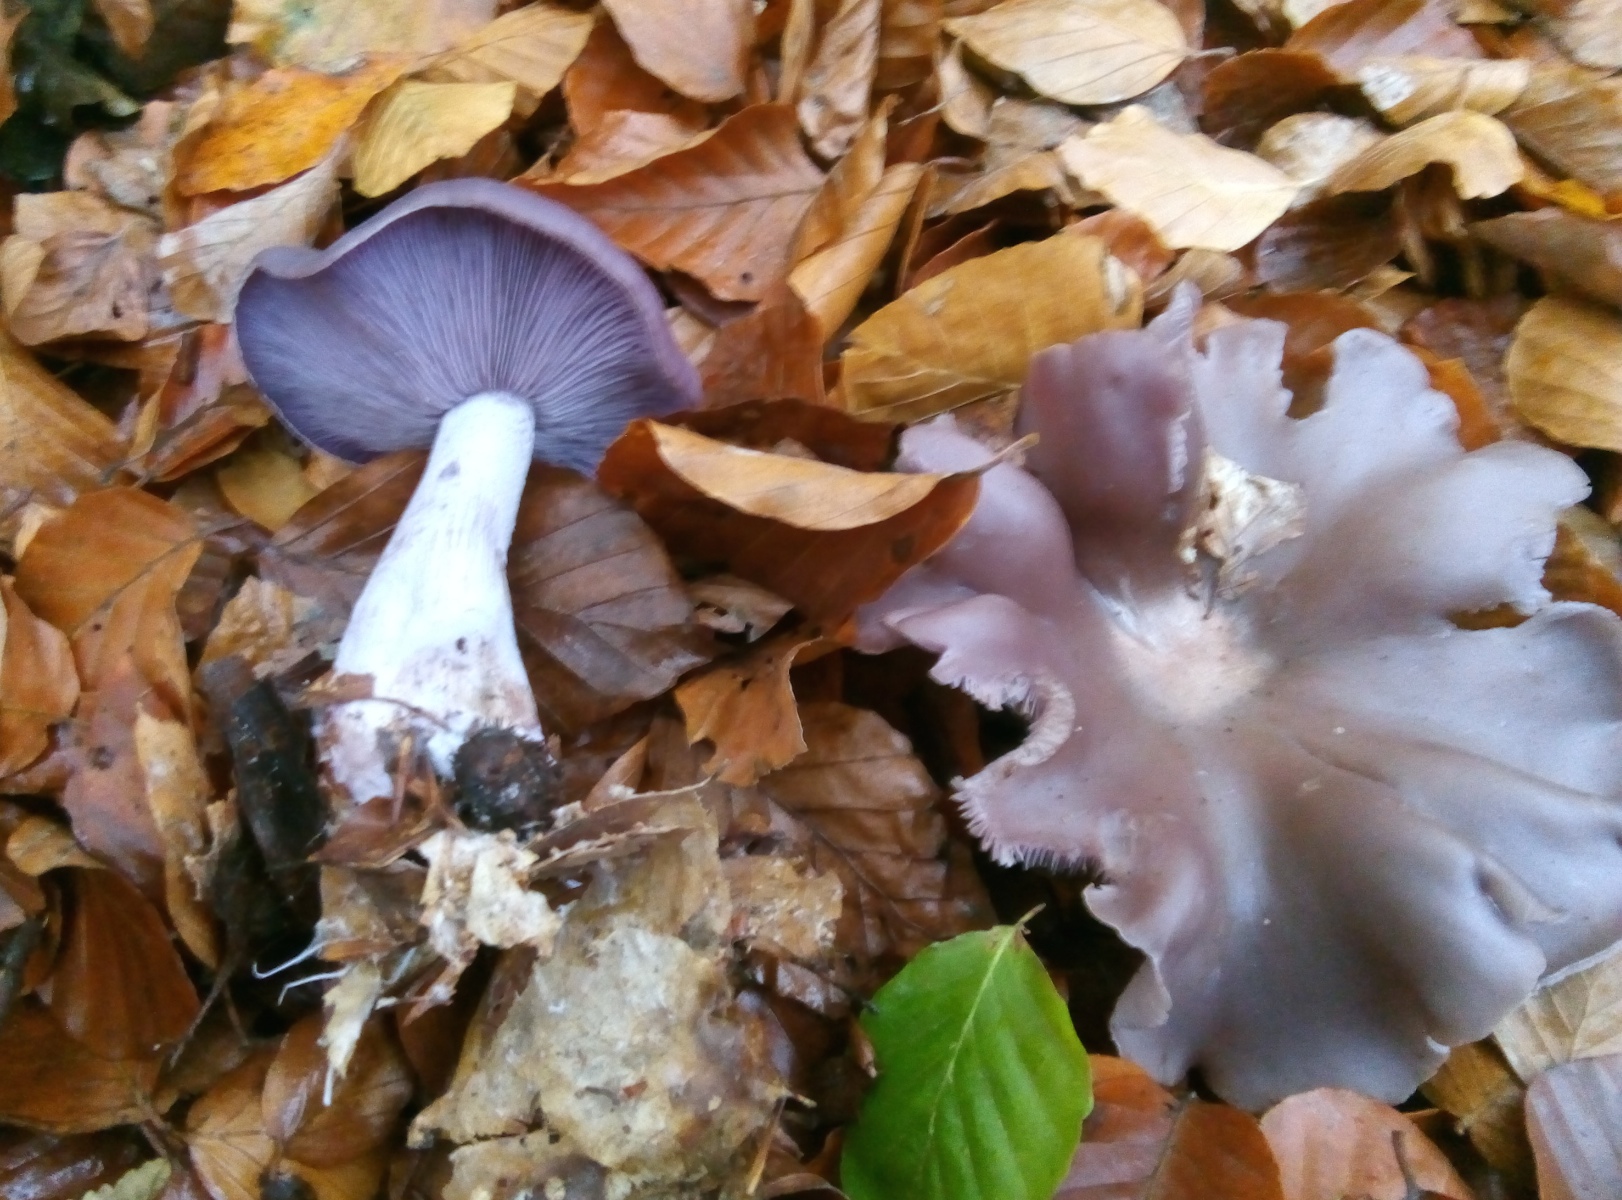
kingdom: Fungi
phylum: Basidiomycota
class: Agaricomycetes
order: Agaricales
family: Tricholomataceae
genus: Lepista
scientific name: Lepista nuda
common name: violet hekseringshat
